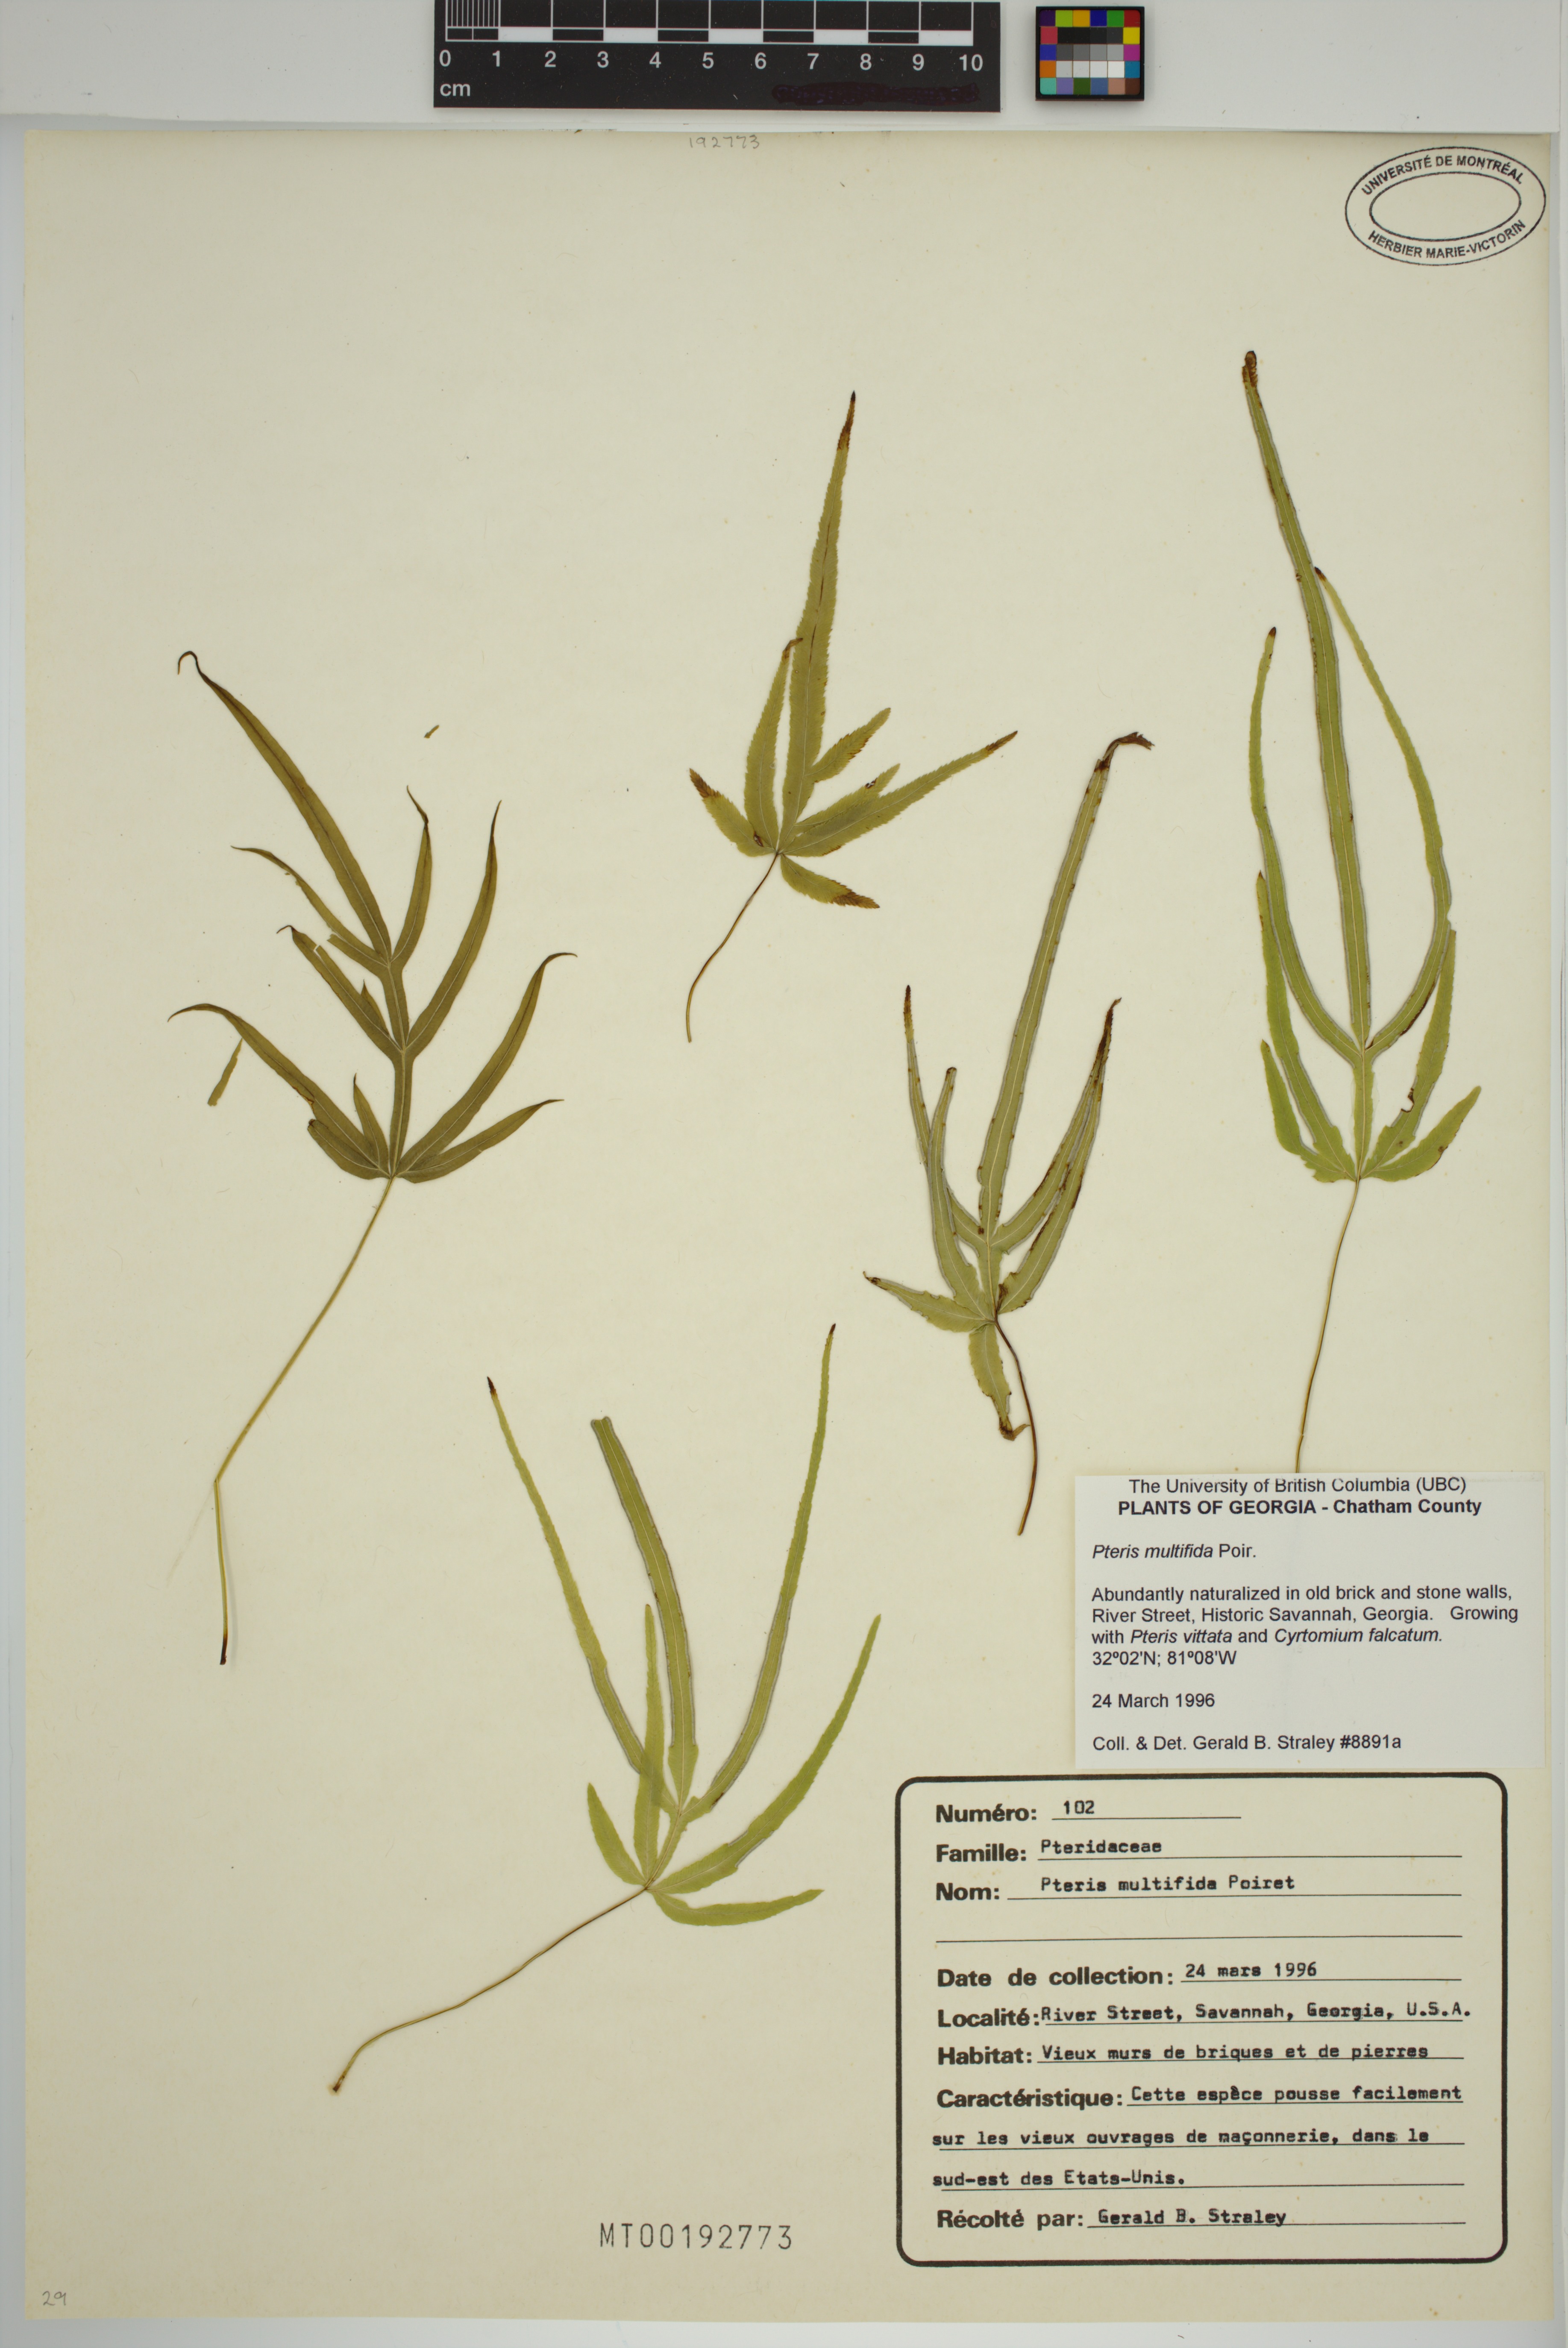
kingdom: Plantae
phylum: Tracheophyta
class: Polypodiopsida
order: Polypodiales
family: Pteridaceae
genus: Pteris
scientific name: Pteris multifida
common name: Spider brake
